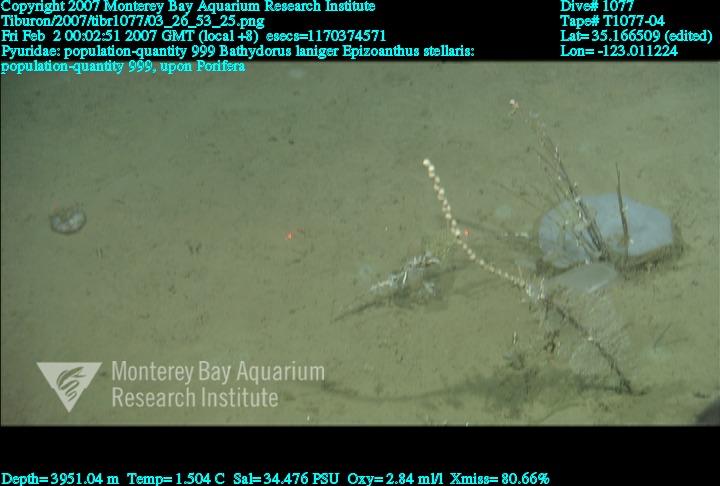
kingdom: Animalia
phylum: Porifera
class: Hexactinellida
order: Lyssacinosida
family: Rossellidae
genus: Bathydorus
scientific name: Bathydorus laniger
